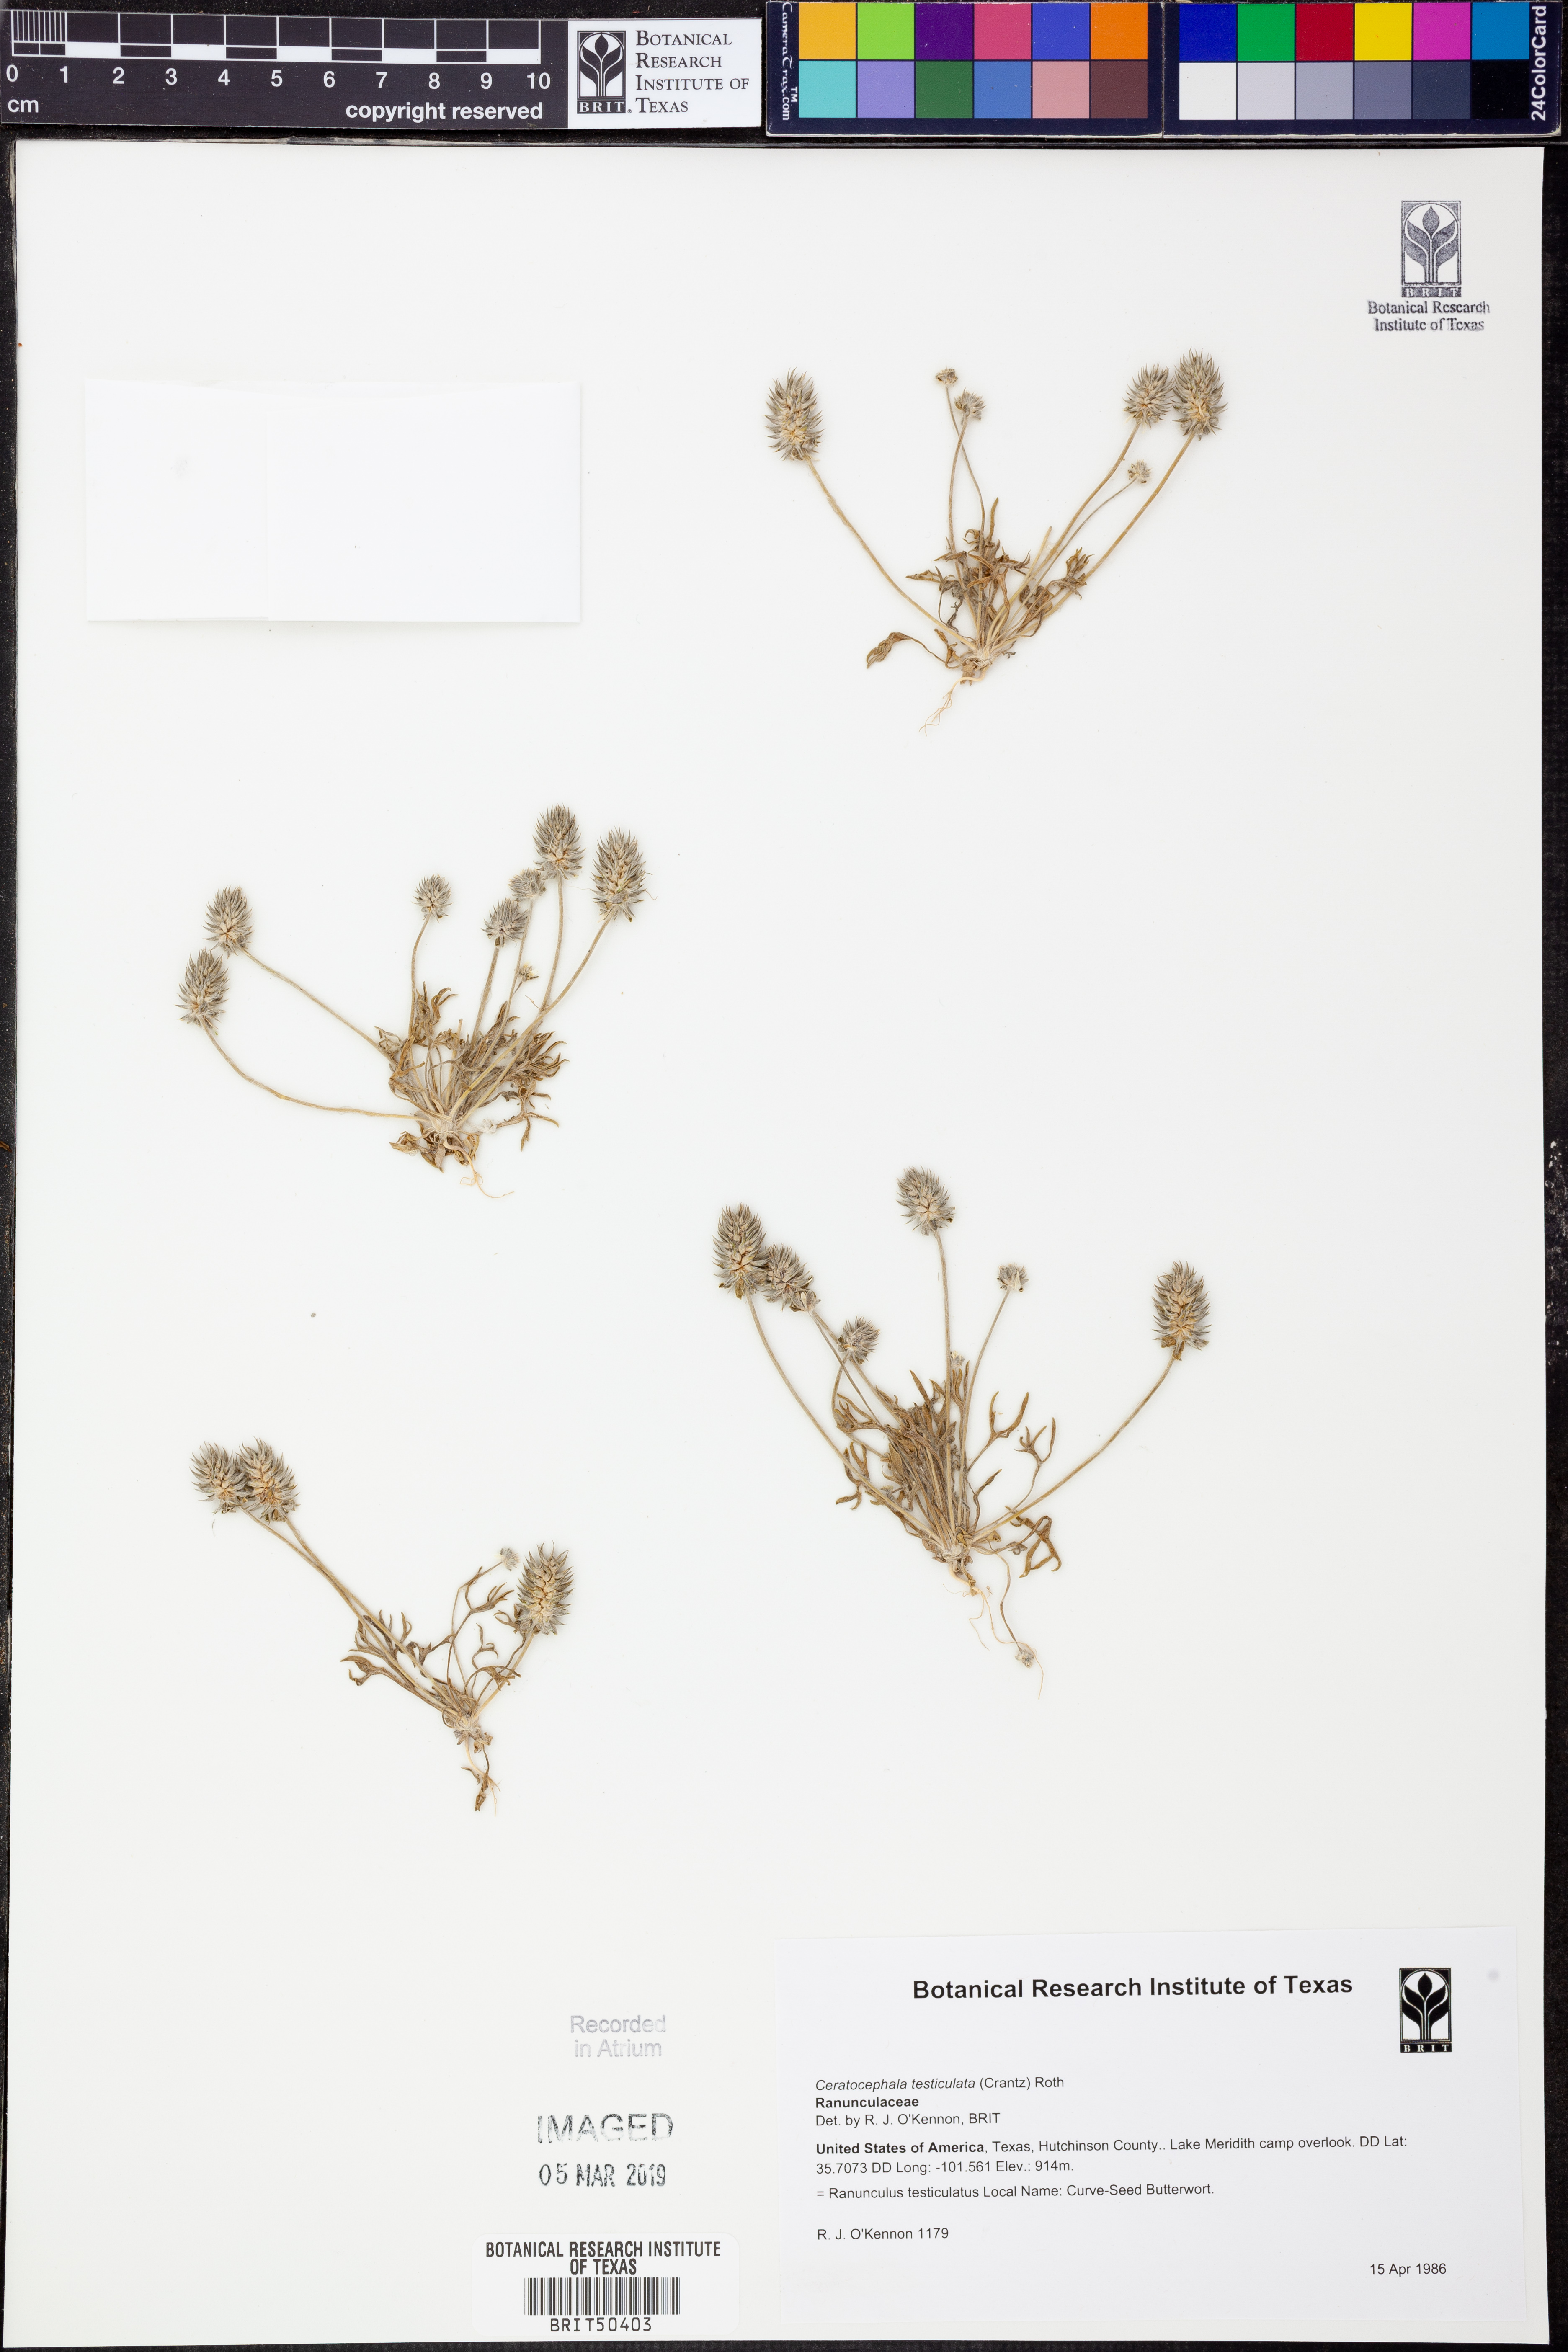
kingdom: Plantae
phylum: Tracheophyta
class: Magnoliopsida
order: Ranunculales
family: Ranunculaceae
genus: Ceratocephala
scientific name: Ceratocephala orthoceras
